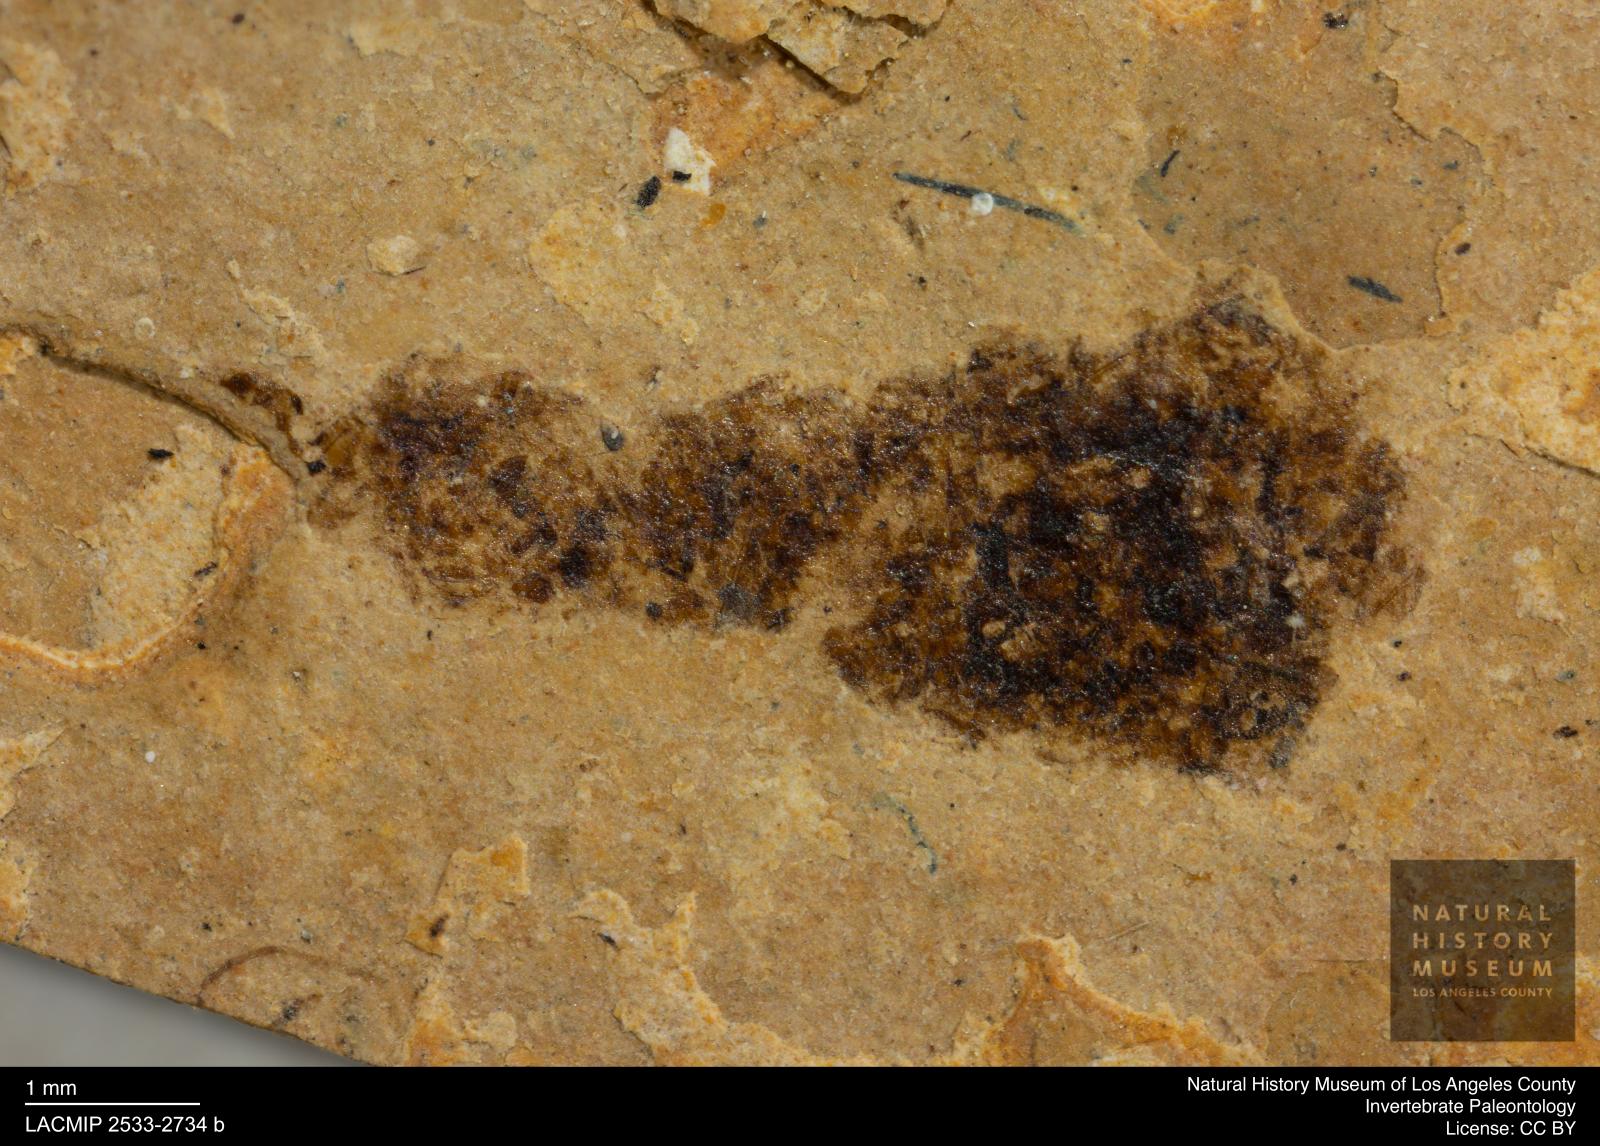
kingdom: Animalia
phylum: Arthropoda
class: Insecta
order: Hymenoptera
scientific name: Hymenoptera
